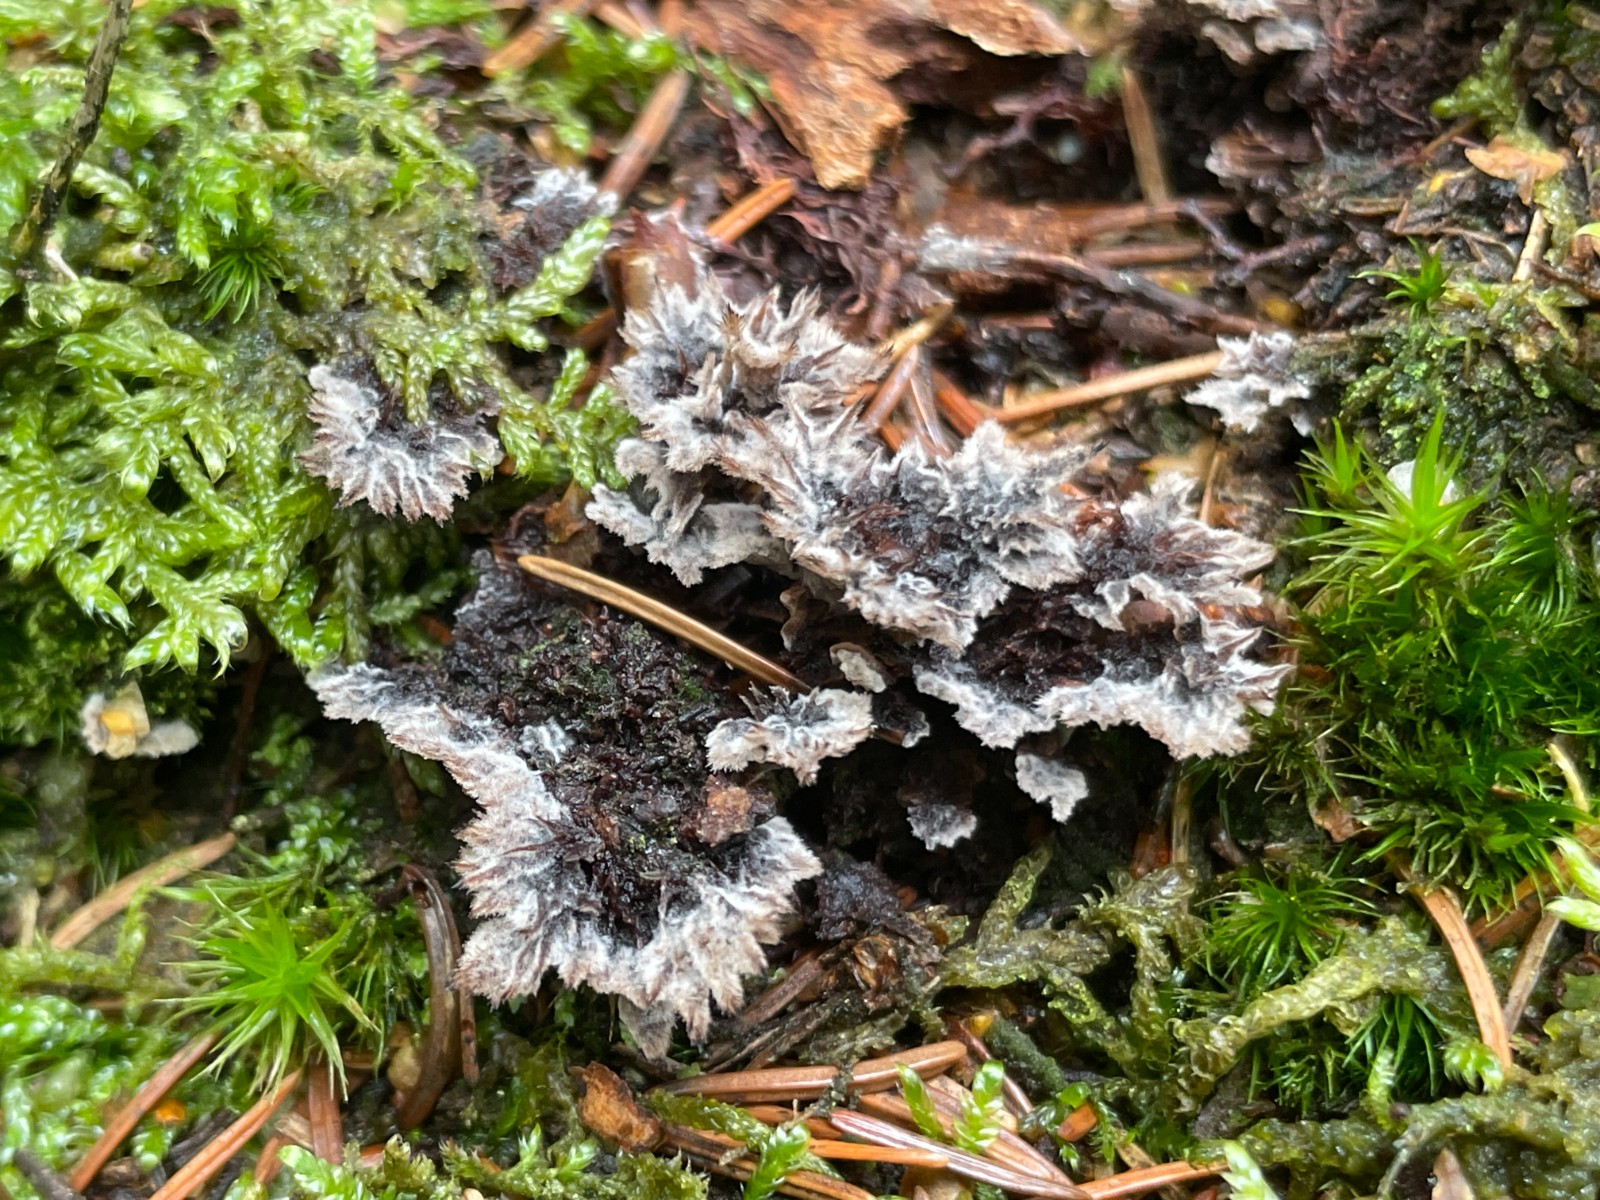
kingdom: Fungi
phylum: Basidiomycota
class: Agaricomycetes
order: Thelephorales
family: Thelephoraceae
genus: Thelephora
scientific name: Thelephora terrestris
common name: fliget frynsesvamp
